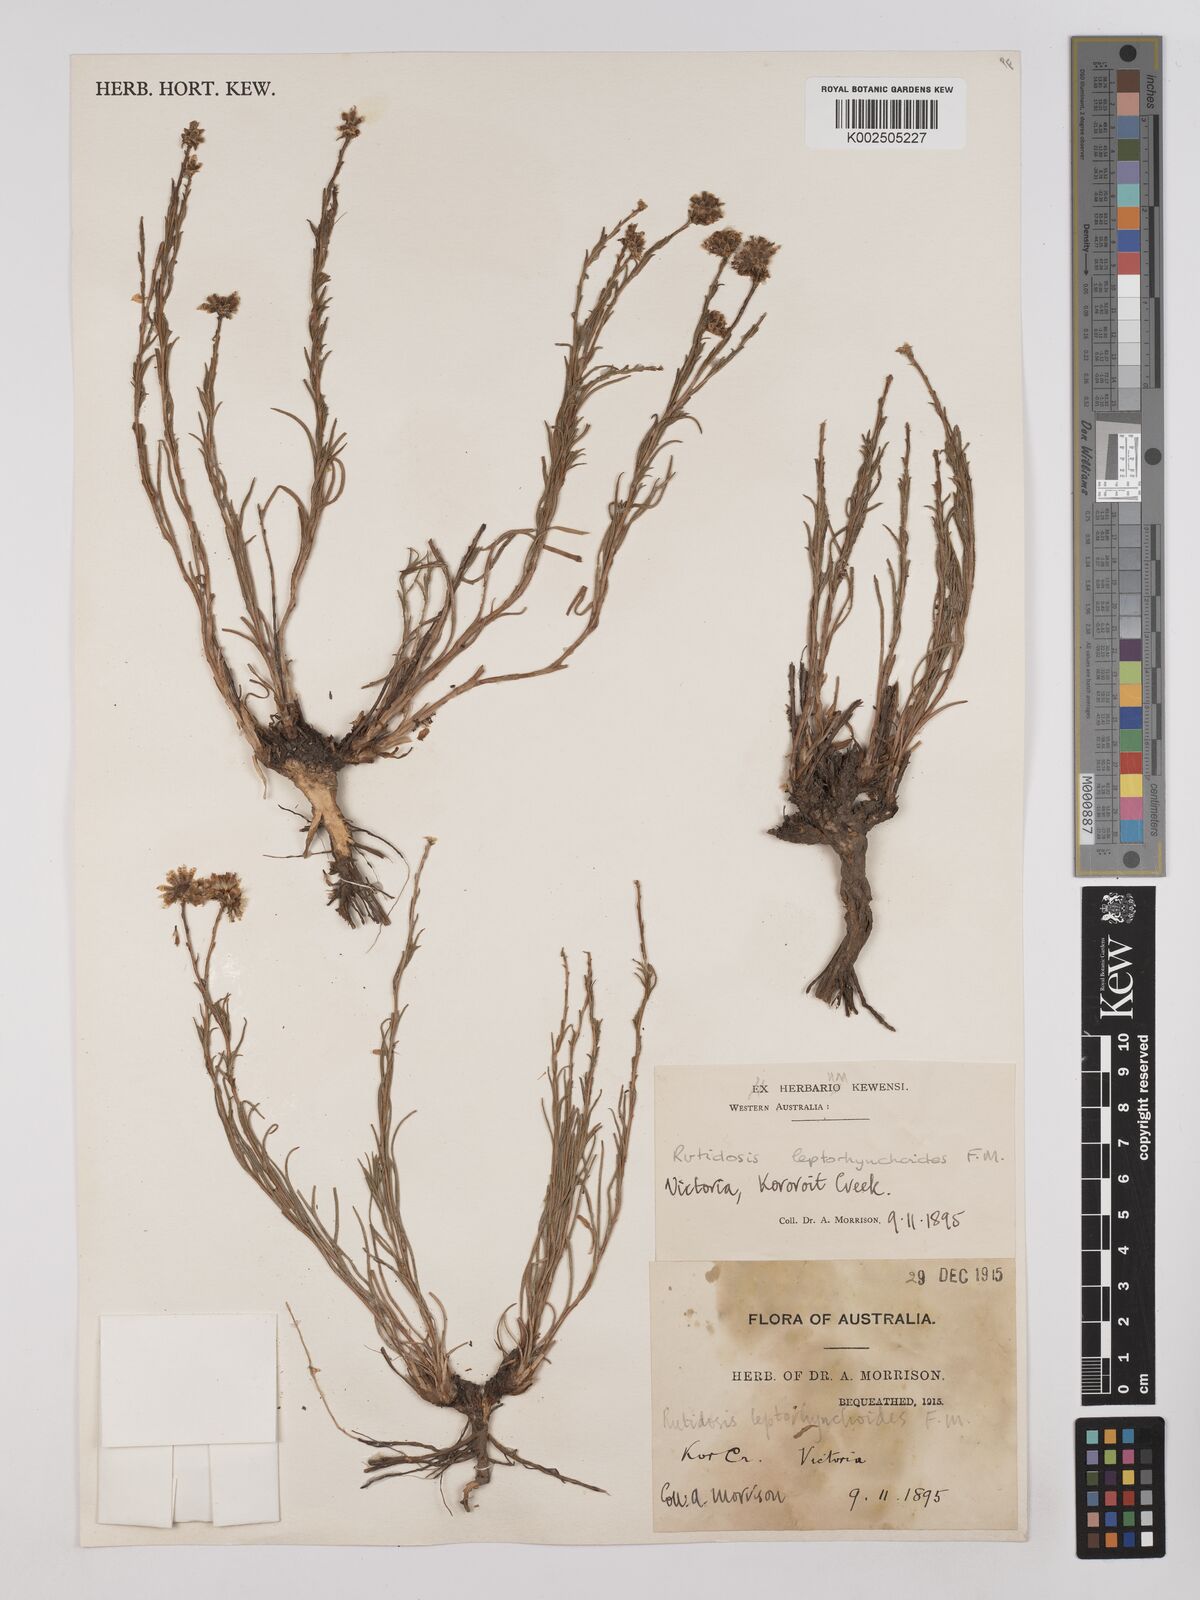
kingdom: Plantae
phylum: Tracheophyta
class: Magnoliopsida
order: Asterales
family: Asteraceae
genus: Rutidosis
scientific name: Rutidosis leptorrhynchoides
